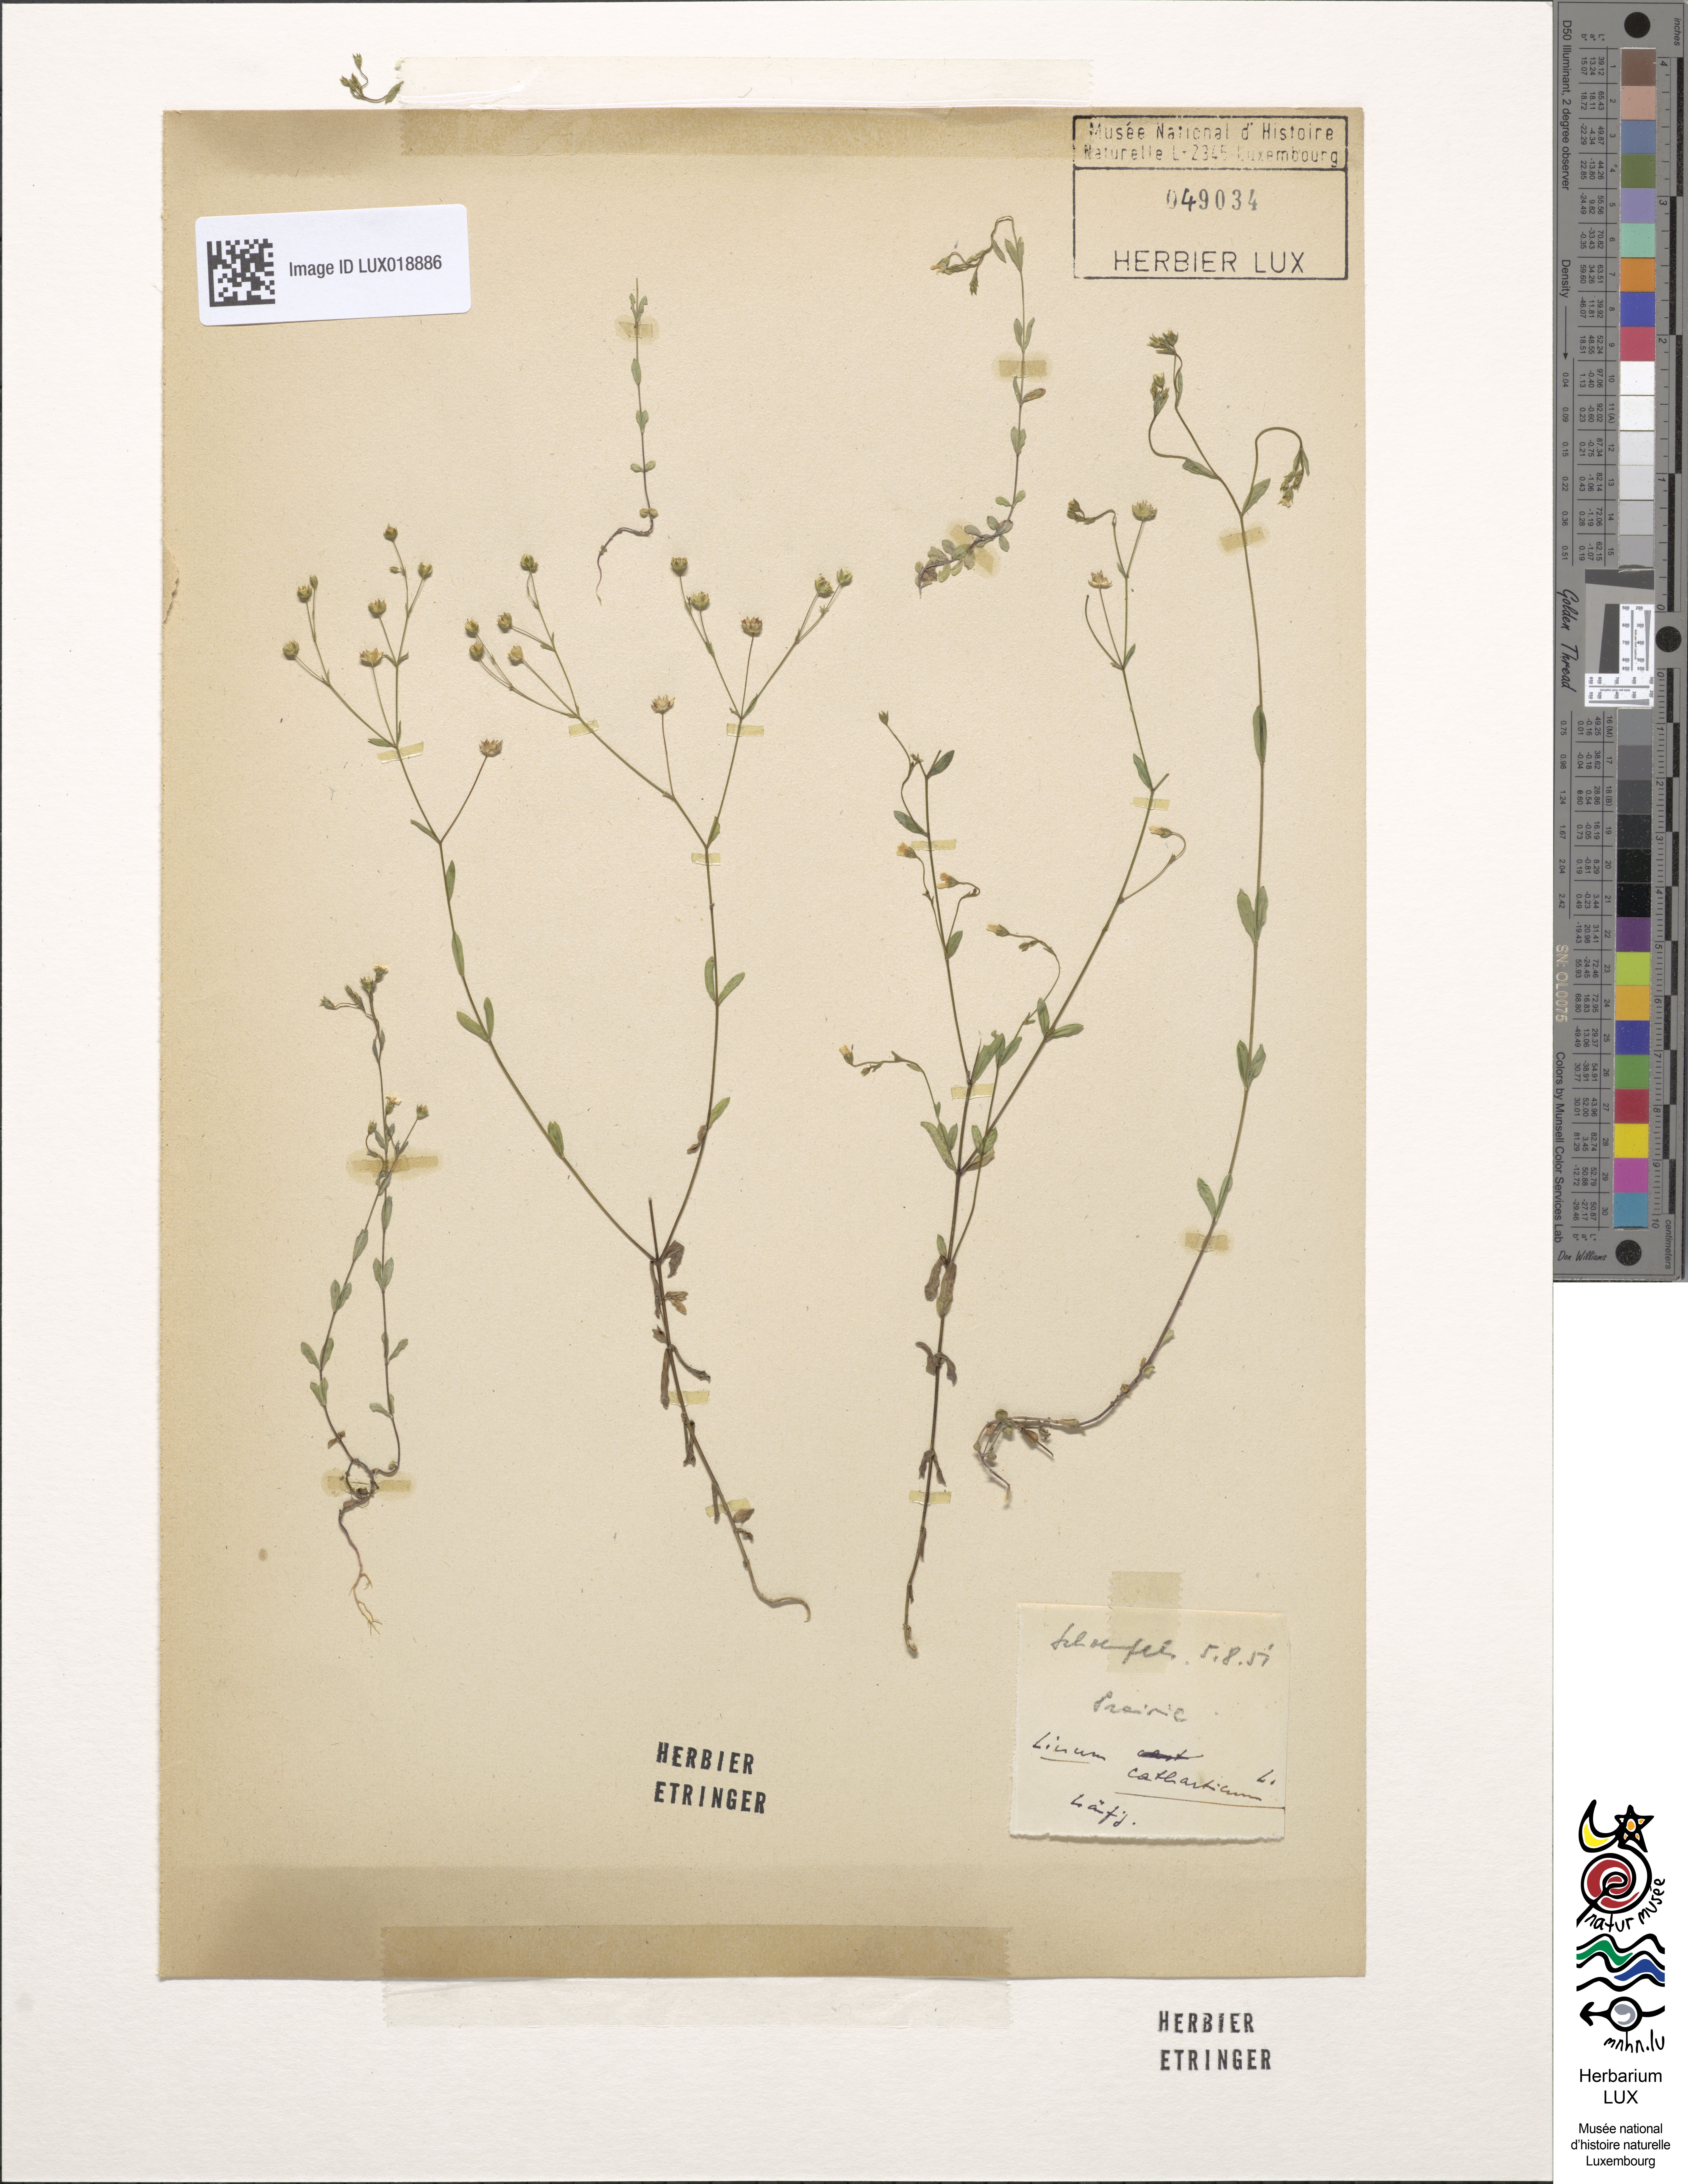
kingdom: Plantae
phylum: Tracheophyta
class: Magnoliopsida
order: Malpighiales
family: Linaceae
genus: Linum
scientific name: Linum catharticum
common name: Fairy flax
